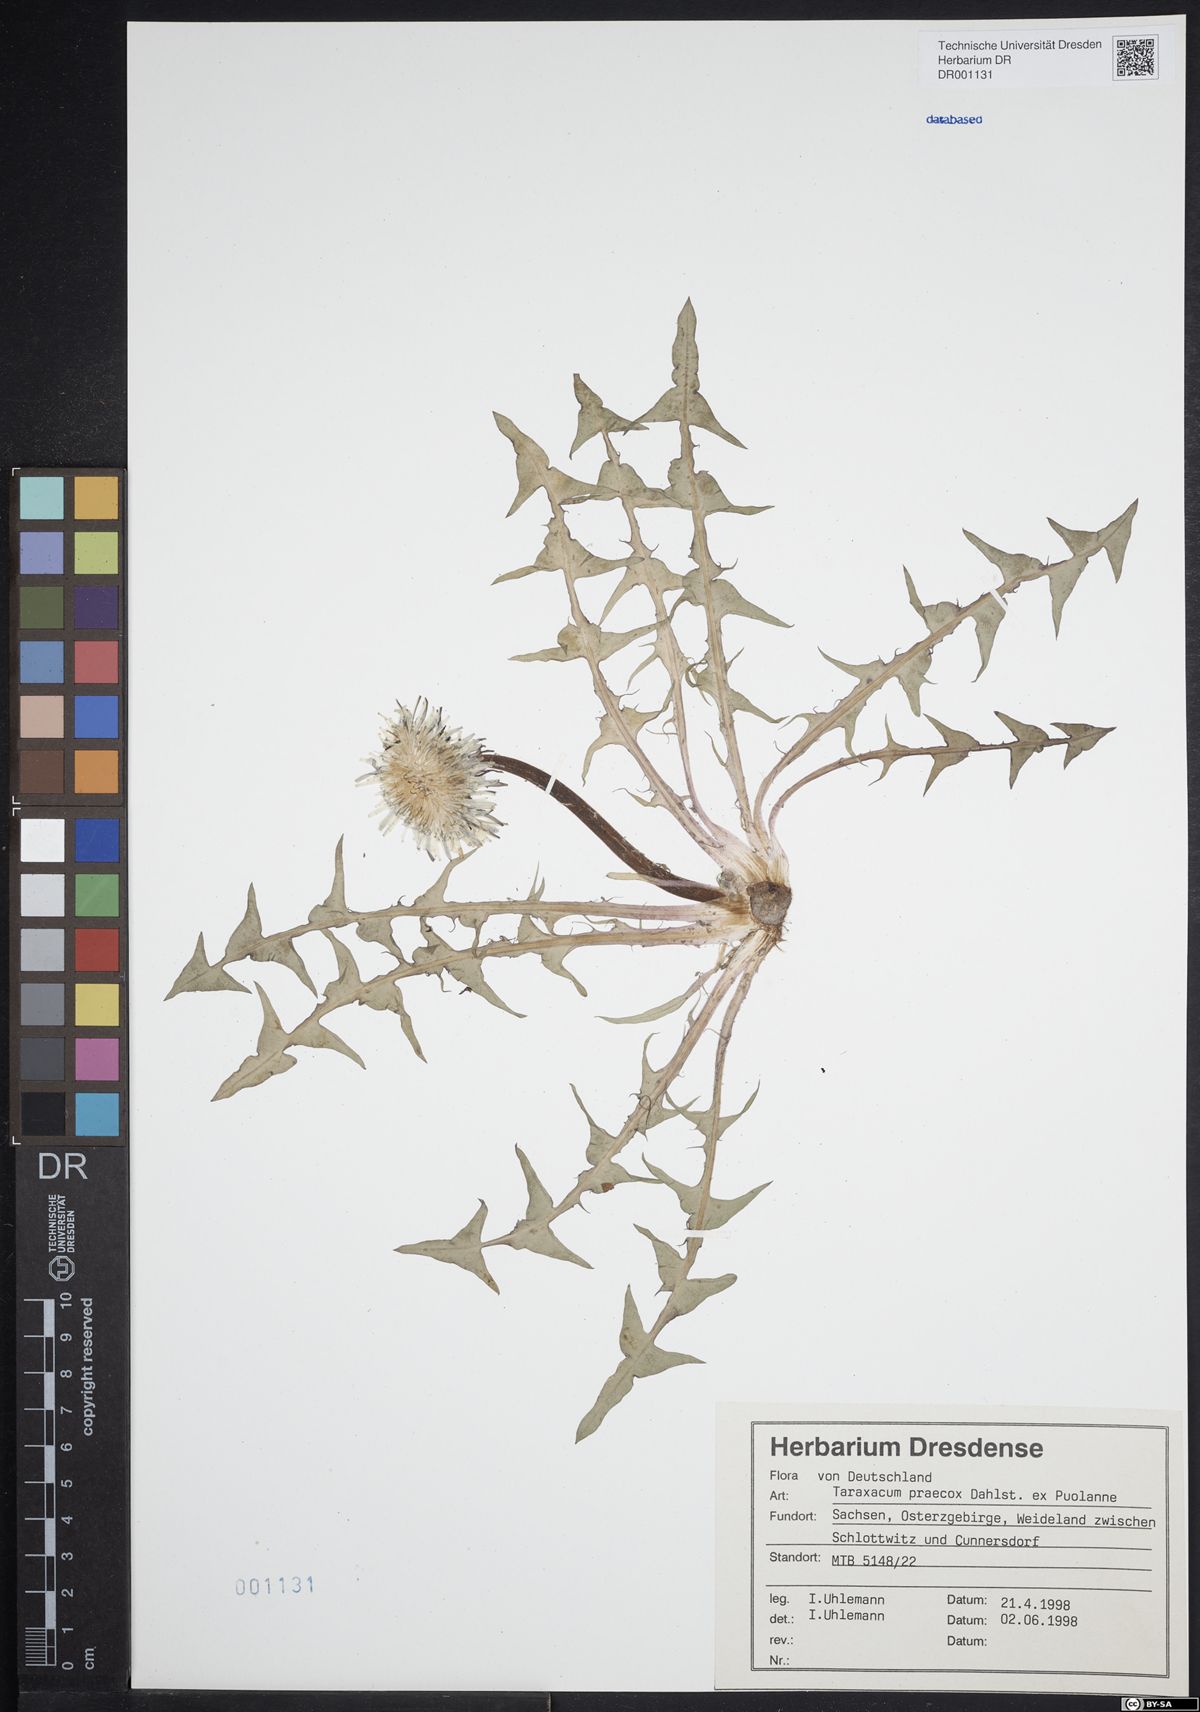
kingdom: Plantae
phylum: Tracheophyta
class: Magnoliopsida
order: Asterales
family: Asteraceae
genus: Taraxacum
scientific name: Taraxacum praecox
